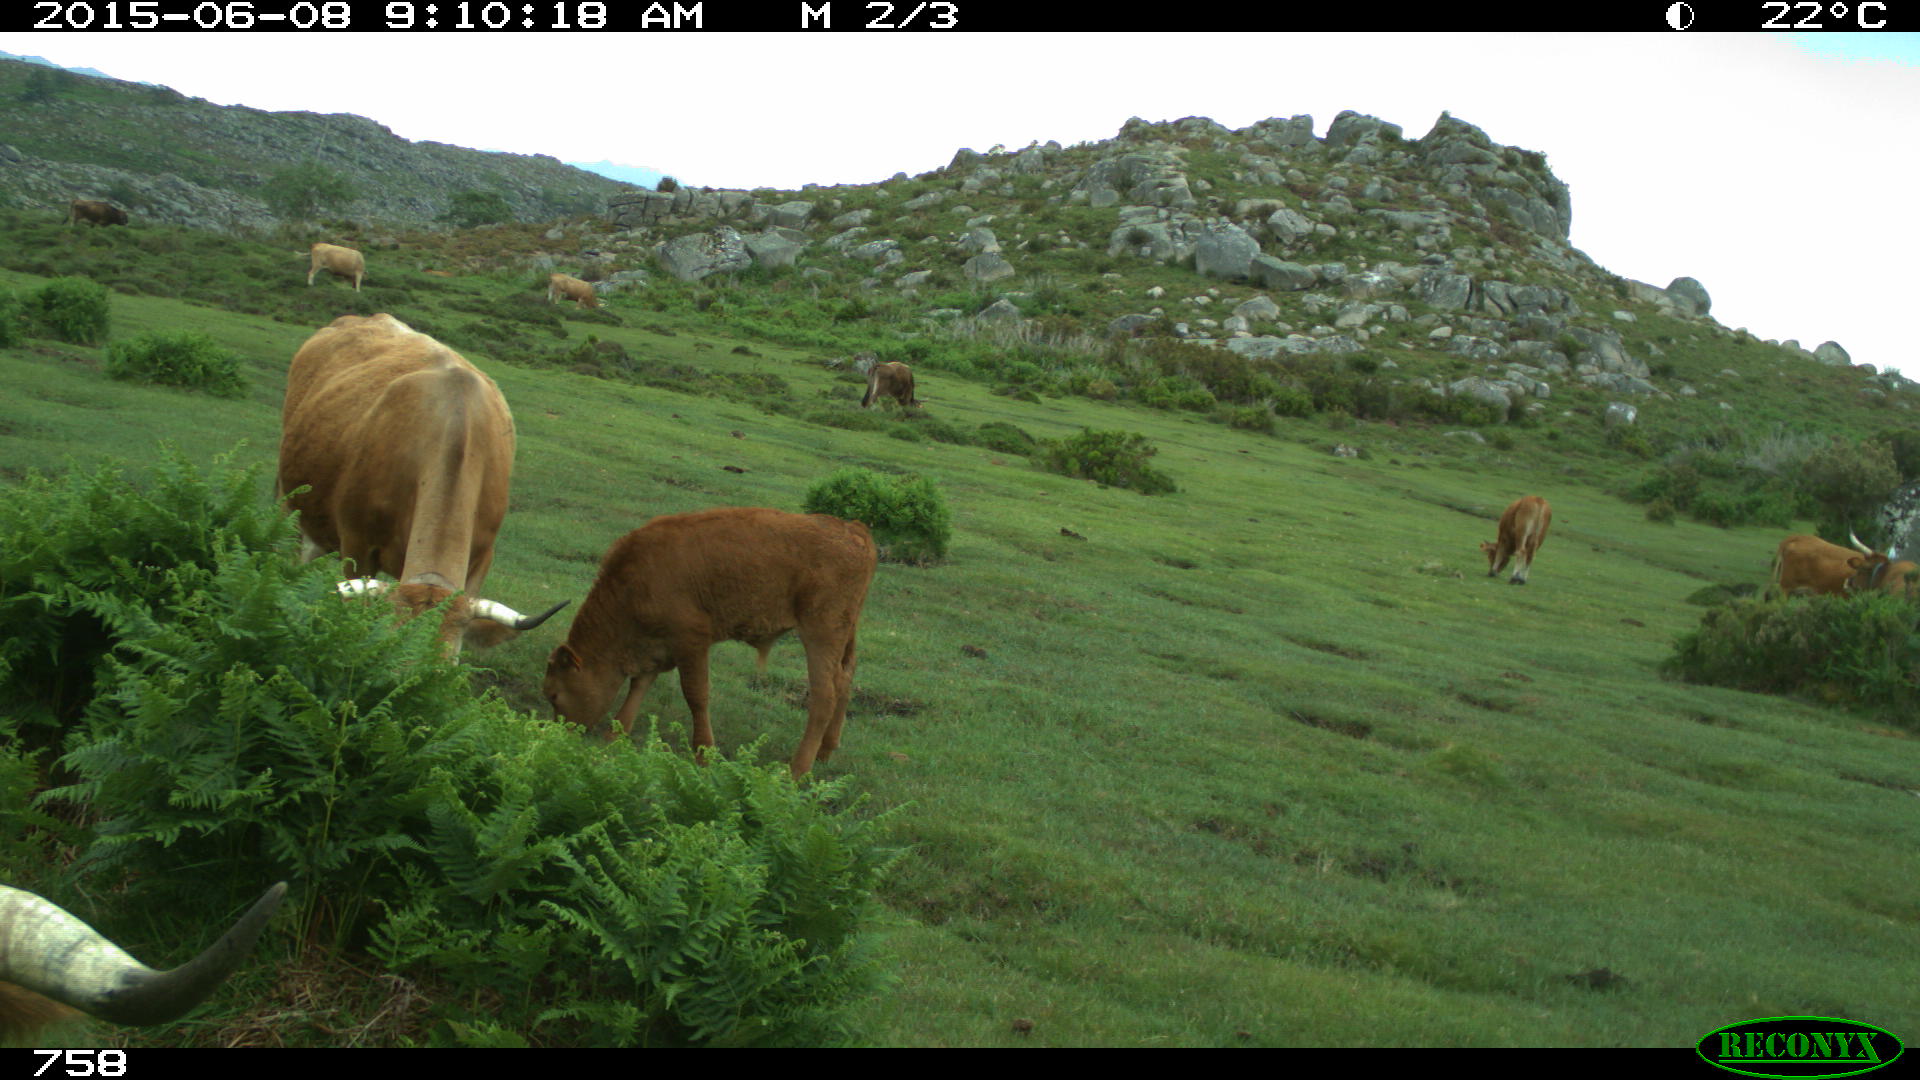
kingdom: Animalia
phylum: Chordata
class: Mammalia
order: Artiodactyla
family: Bovidae
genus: Bos
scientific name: Bos taurus
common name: Domesticated cattle
